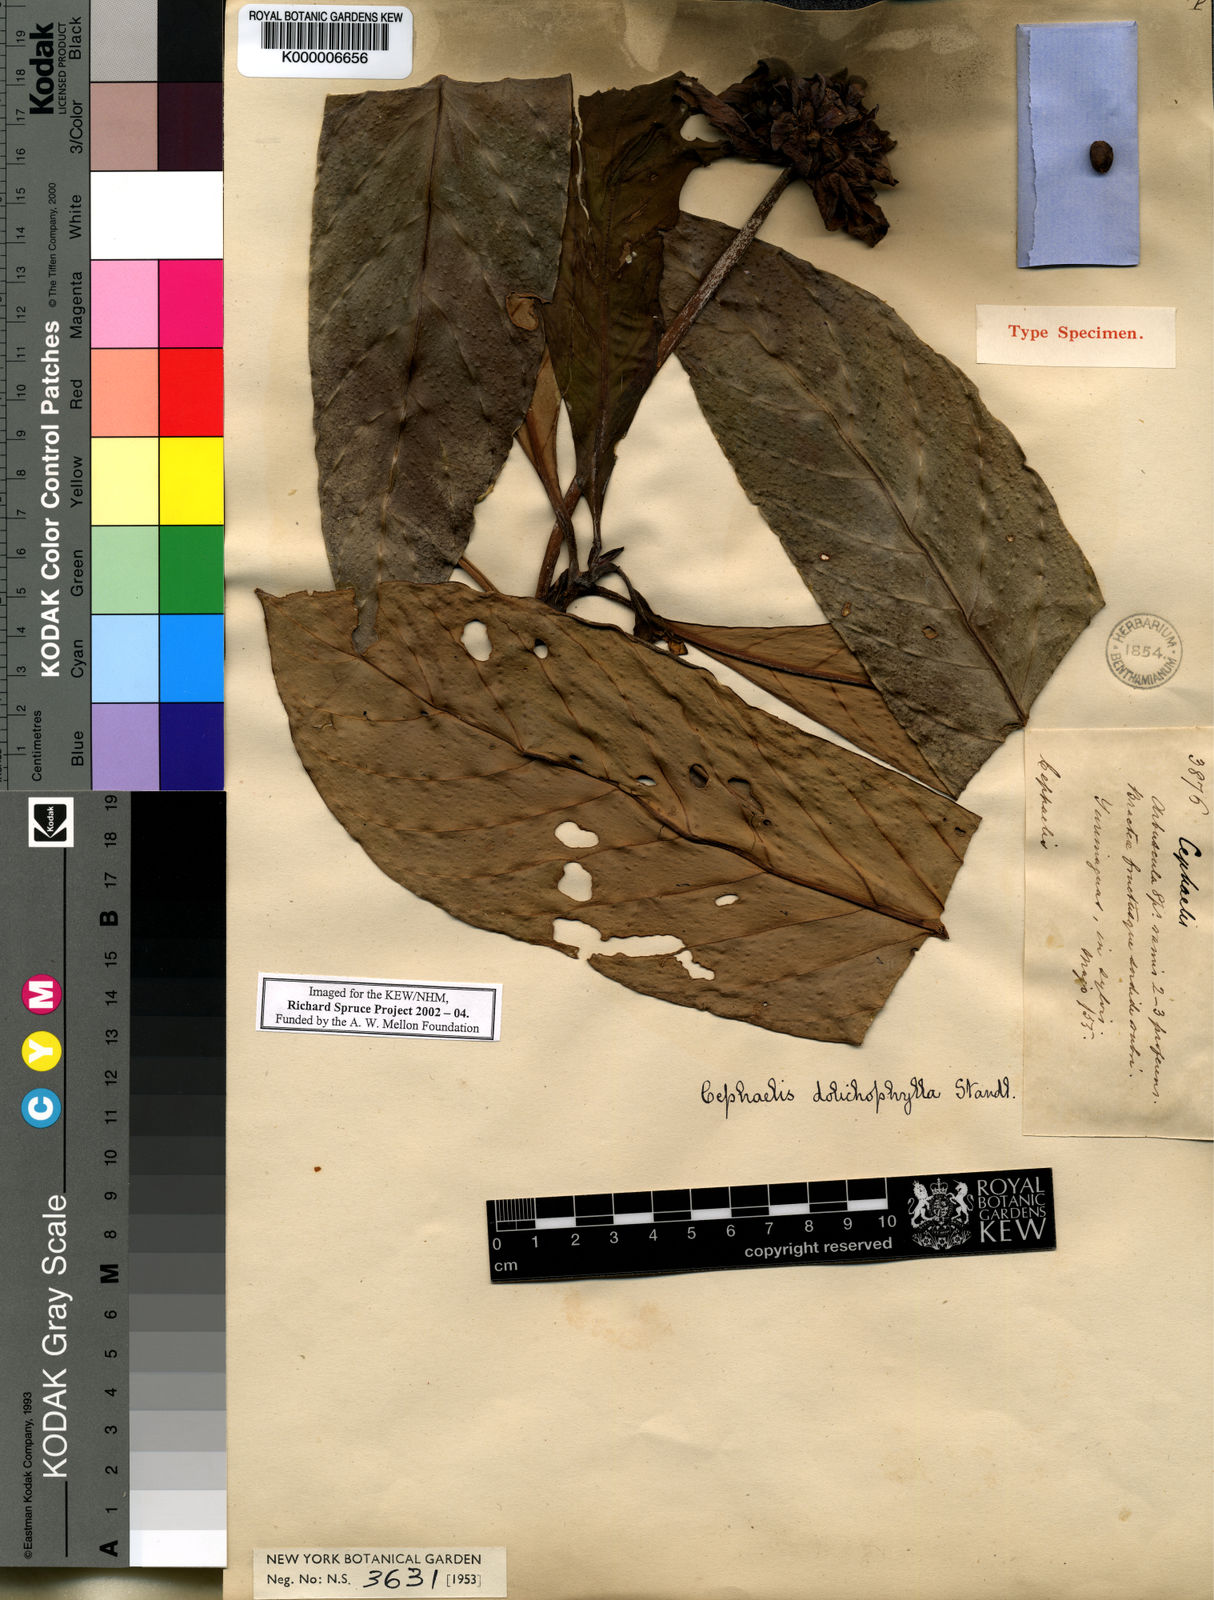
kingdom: Plantae
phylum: Tracheophyta
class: Magnoliopsida
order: Gentianales
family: Rubiaceae
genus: Carapichea
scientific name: Carapichea dolichophylla
